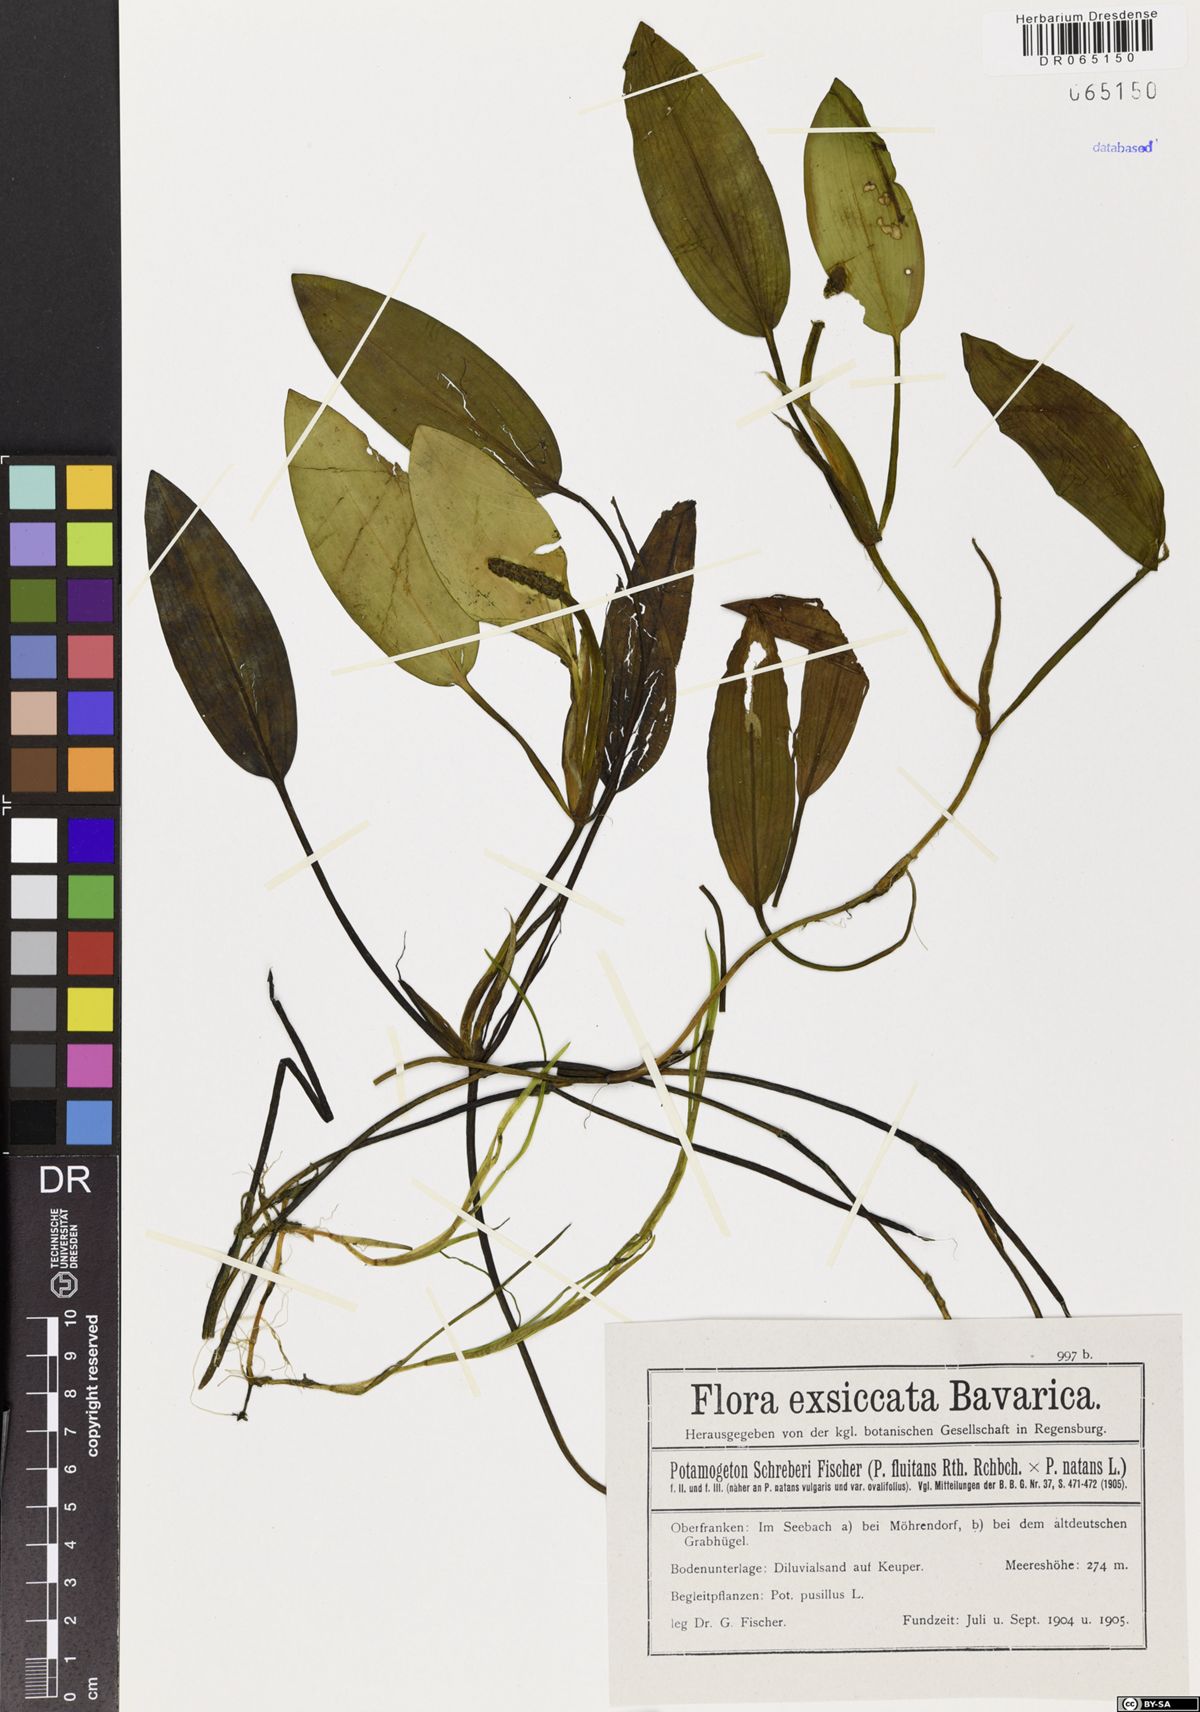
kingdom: Plantae
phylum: Tracheophyta
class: Liliopsida
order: Alismatales
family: Potamogetonaceae
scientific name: Potamogetonaceae
